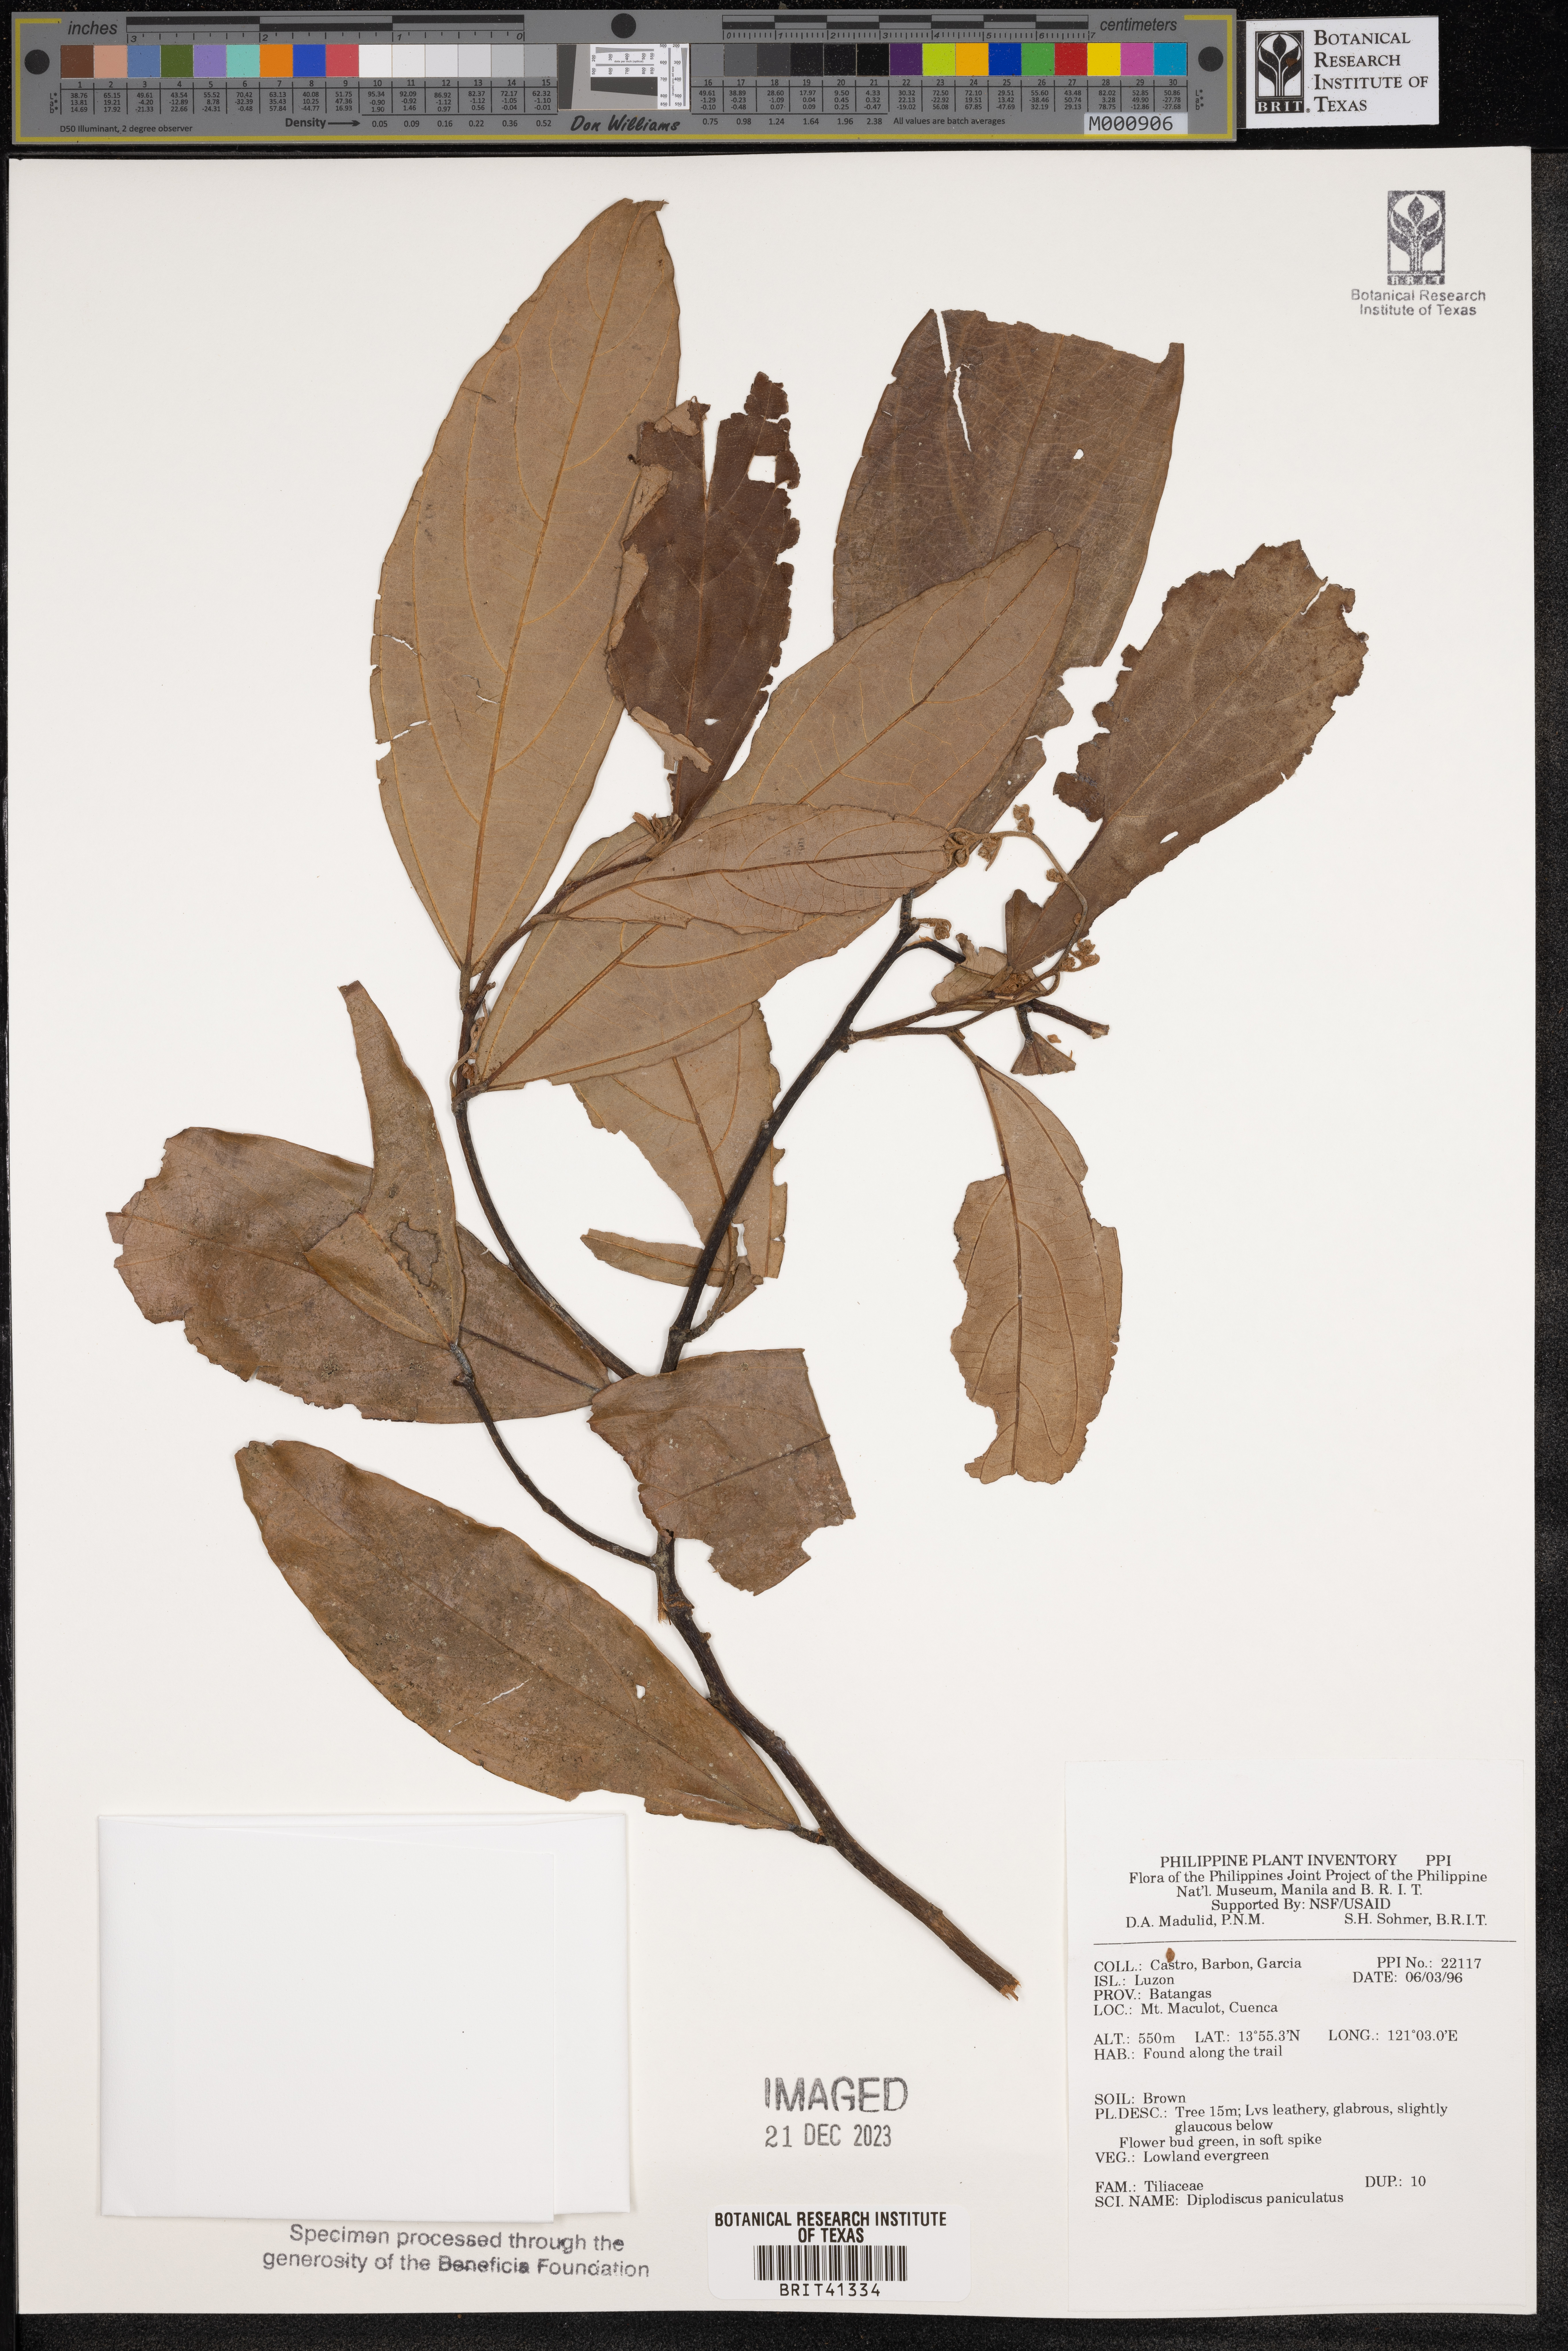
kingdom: Plantae
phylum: Tracheophyta
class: Magnoliopsida
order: Malvales
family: Malvaceae
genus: Diplodiscus
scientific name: Diplodiscus paniculatus
